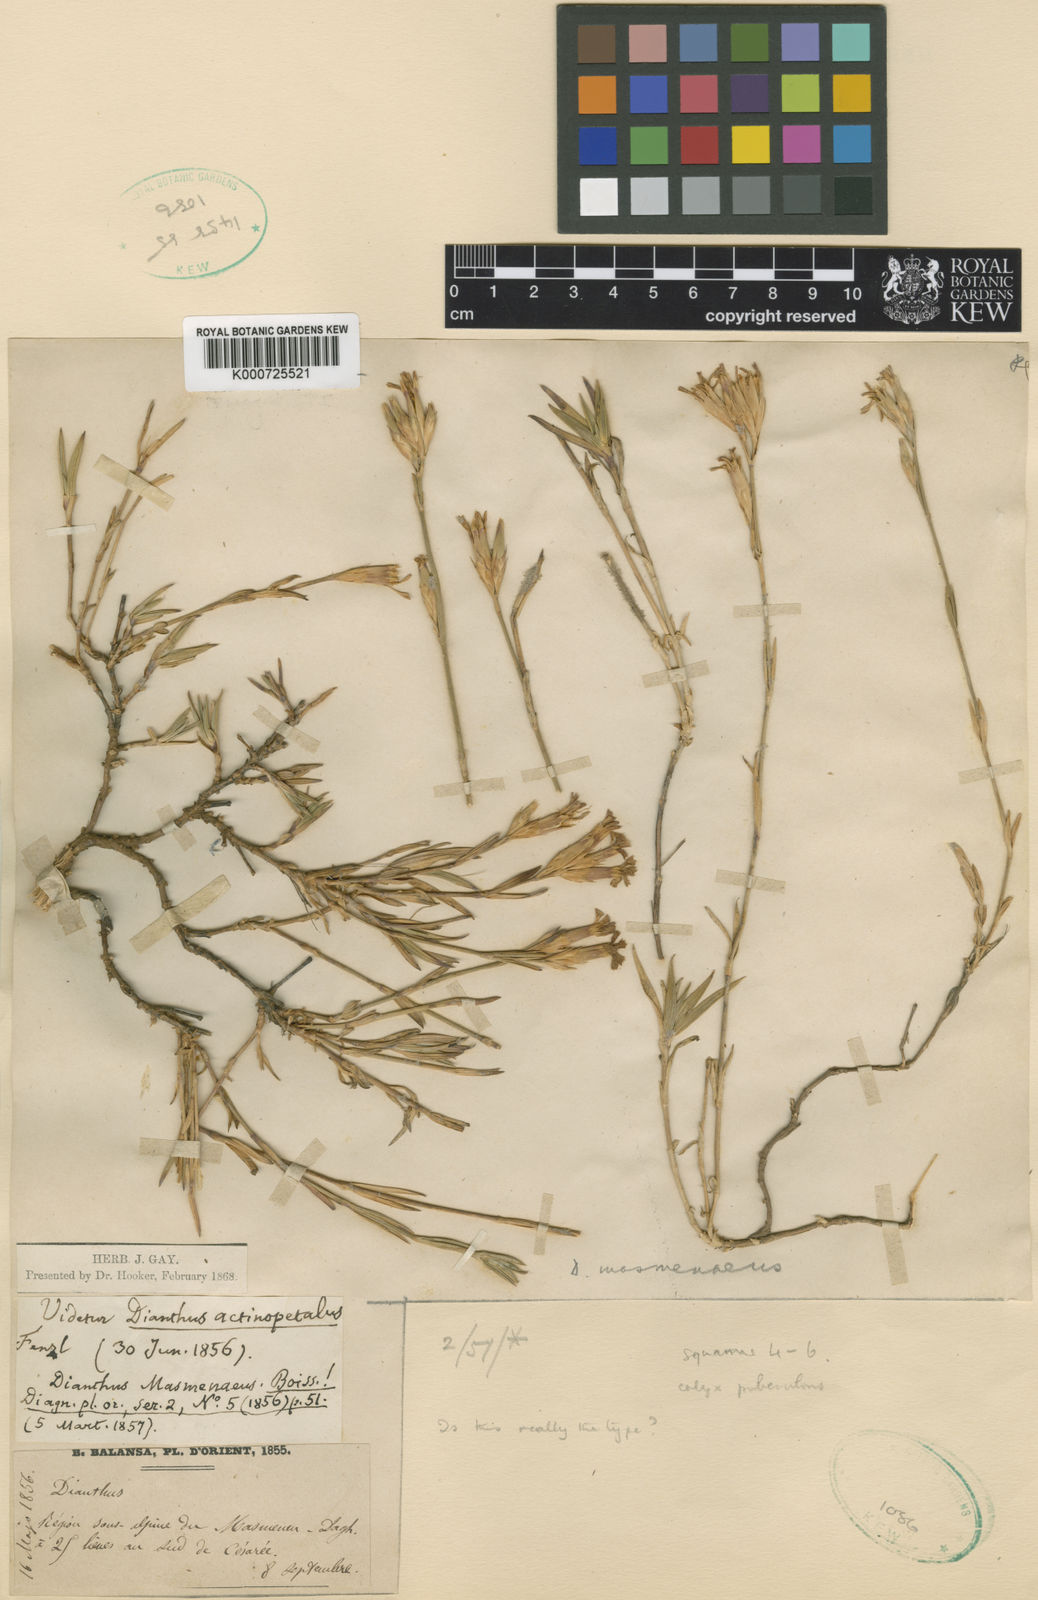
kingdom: Plantae
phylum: Tracheophyta
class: Magnoliopsida
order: Caryophyllales
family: Caryophyllaceae
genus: Dianthus
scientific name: Dianthus masmenaeus
